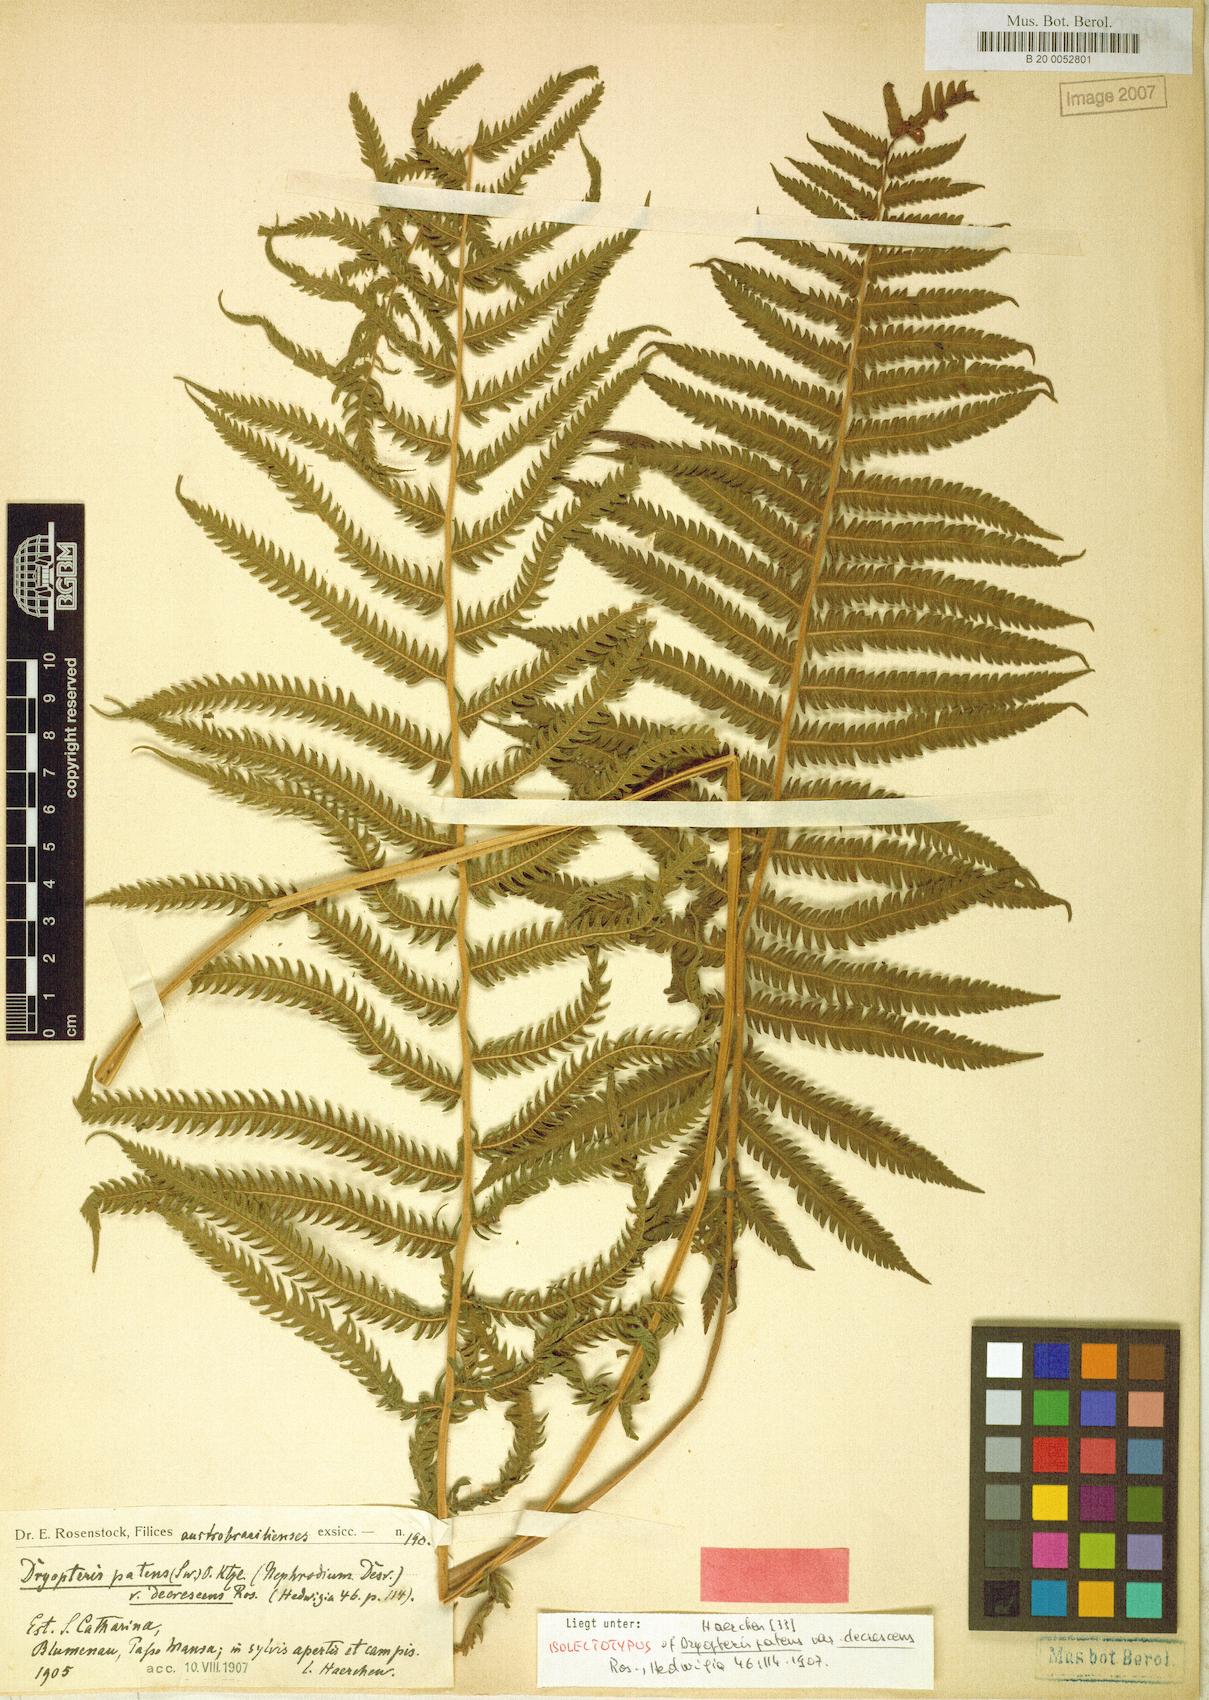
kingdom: Plantae
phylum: Tracheophyta
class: Polypodiopsida
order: Polypodiales
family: Thelypteridaceae
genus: Christella
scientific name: Christella conspersa
